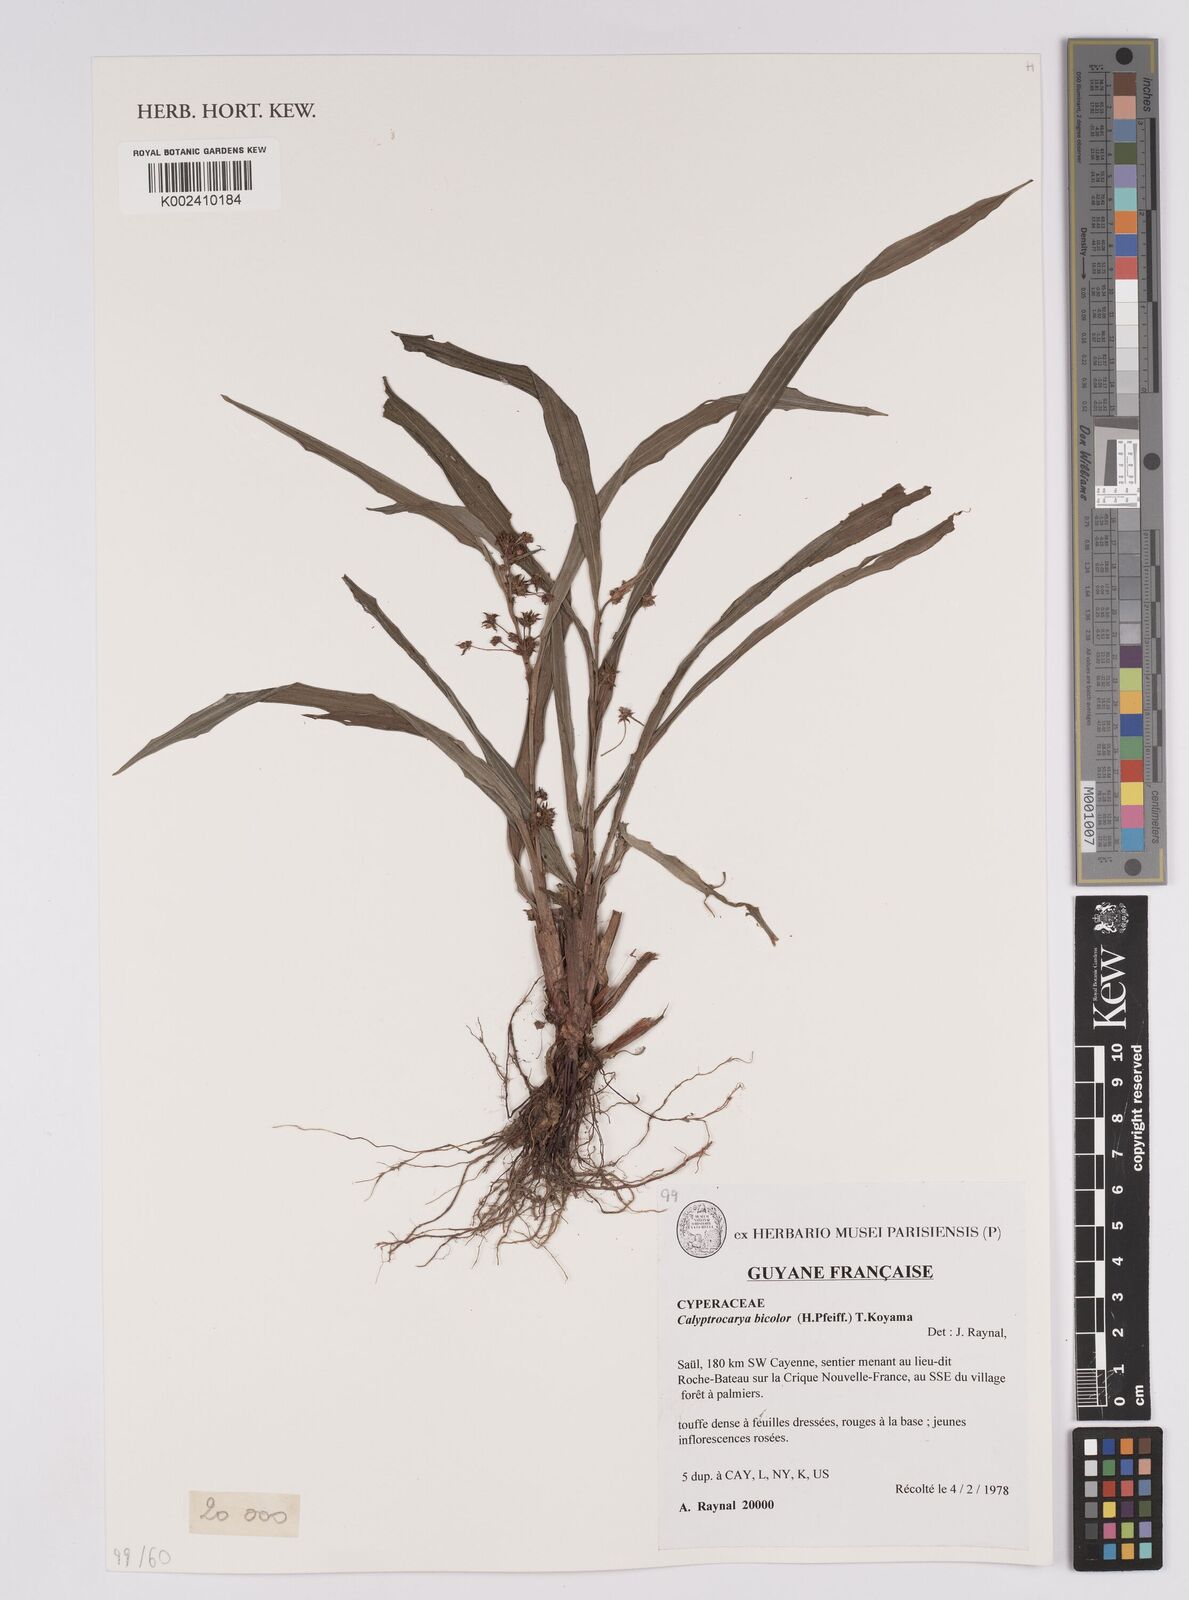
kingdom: Plantae
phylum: Tracheophyta
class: Liliopsida
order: Poales
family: Cyperaceae
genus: Calyptrocarya
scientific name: Calyptrocarya bicolor
